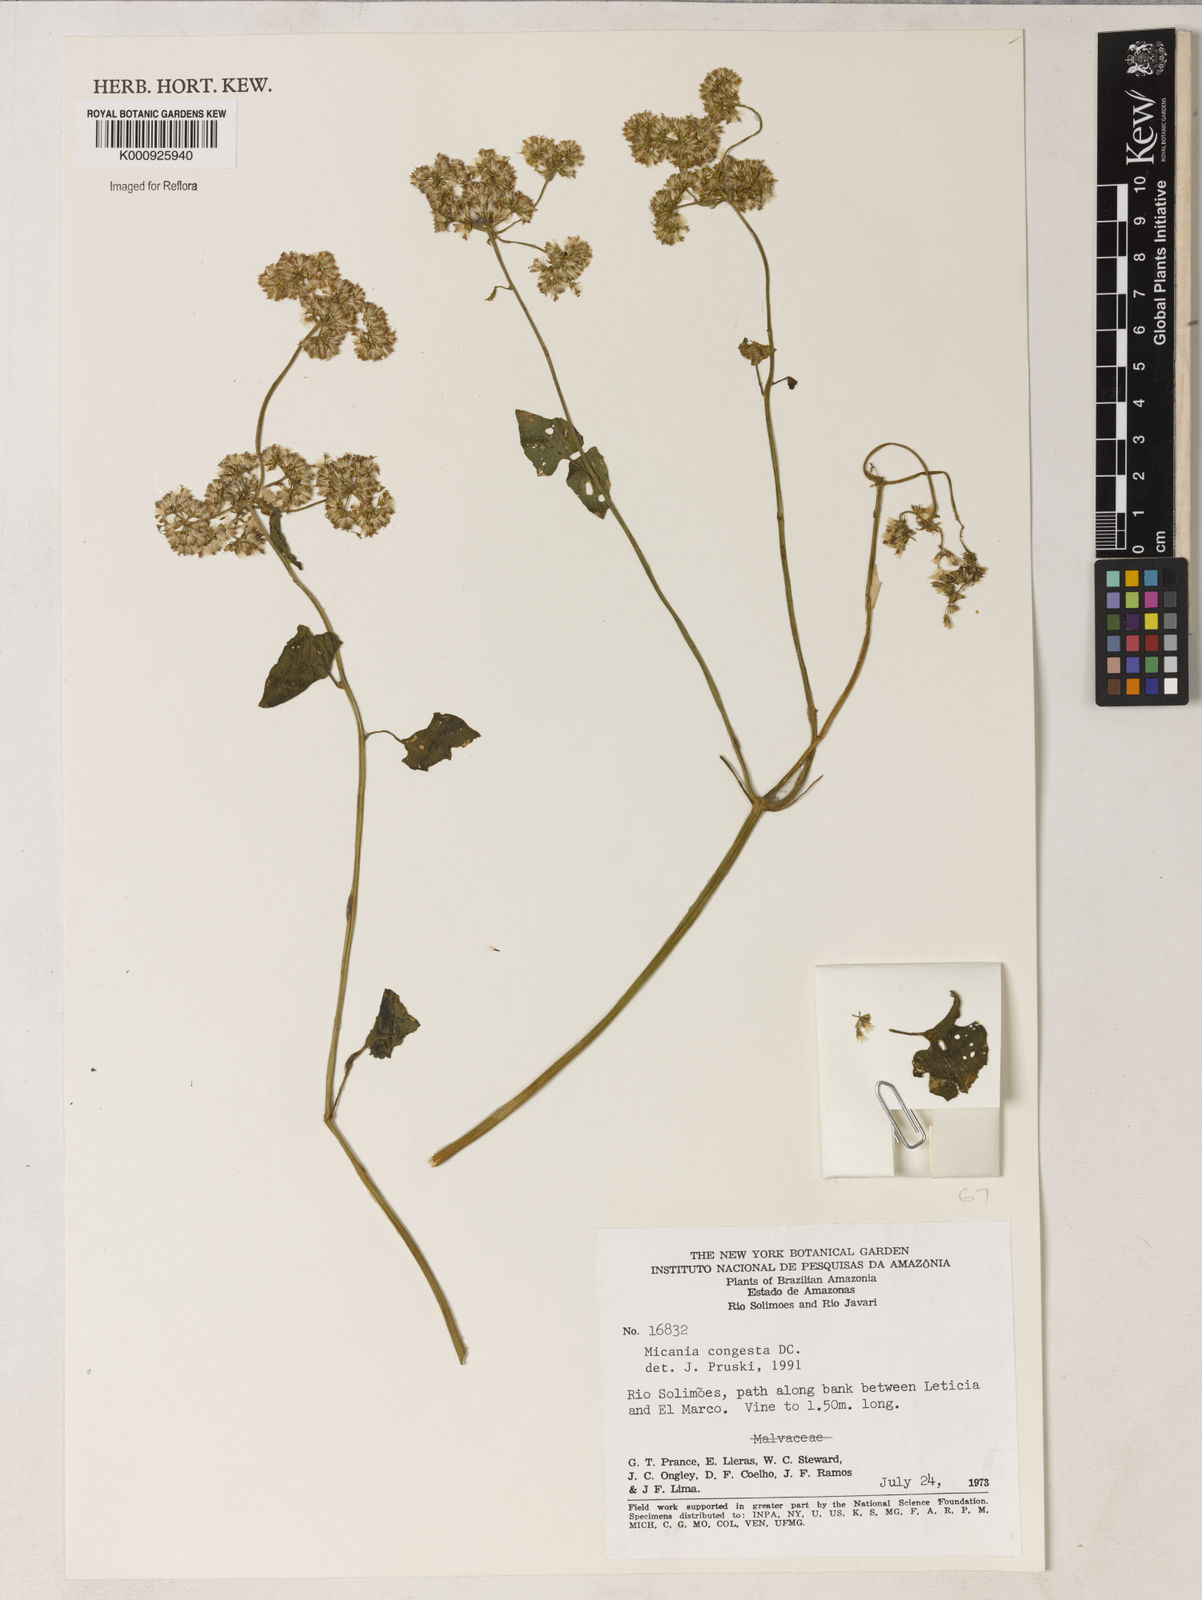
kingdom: Plantae
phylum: Tracheophyta
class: Magnoliopsida
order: Asterales
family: Asteraceae
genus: Mikania
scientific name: Mikania congesta
